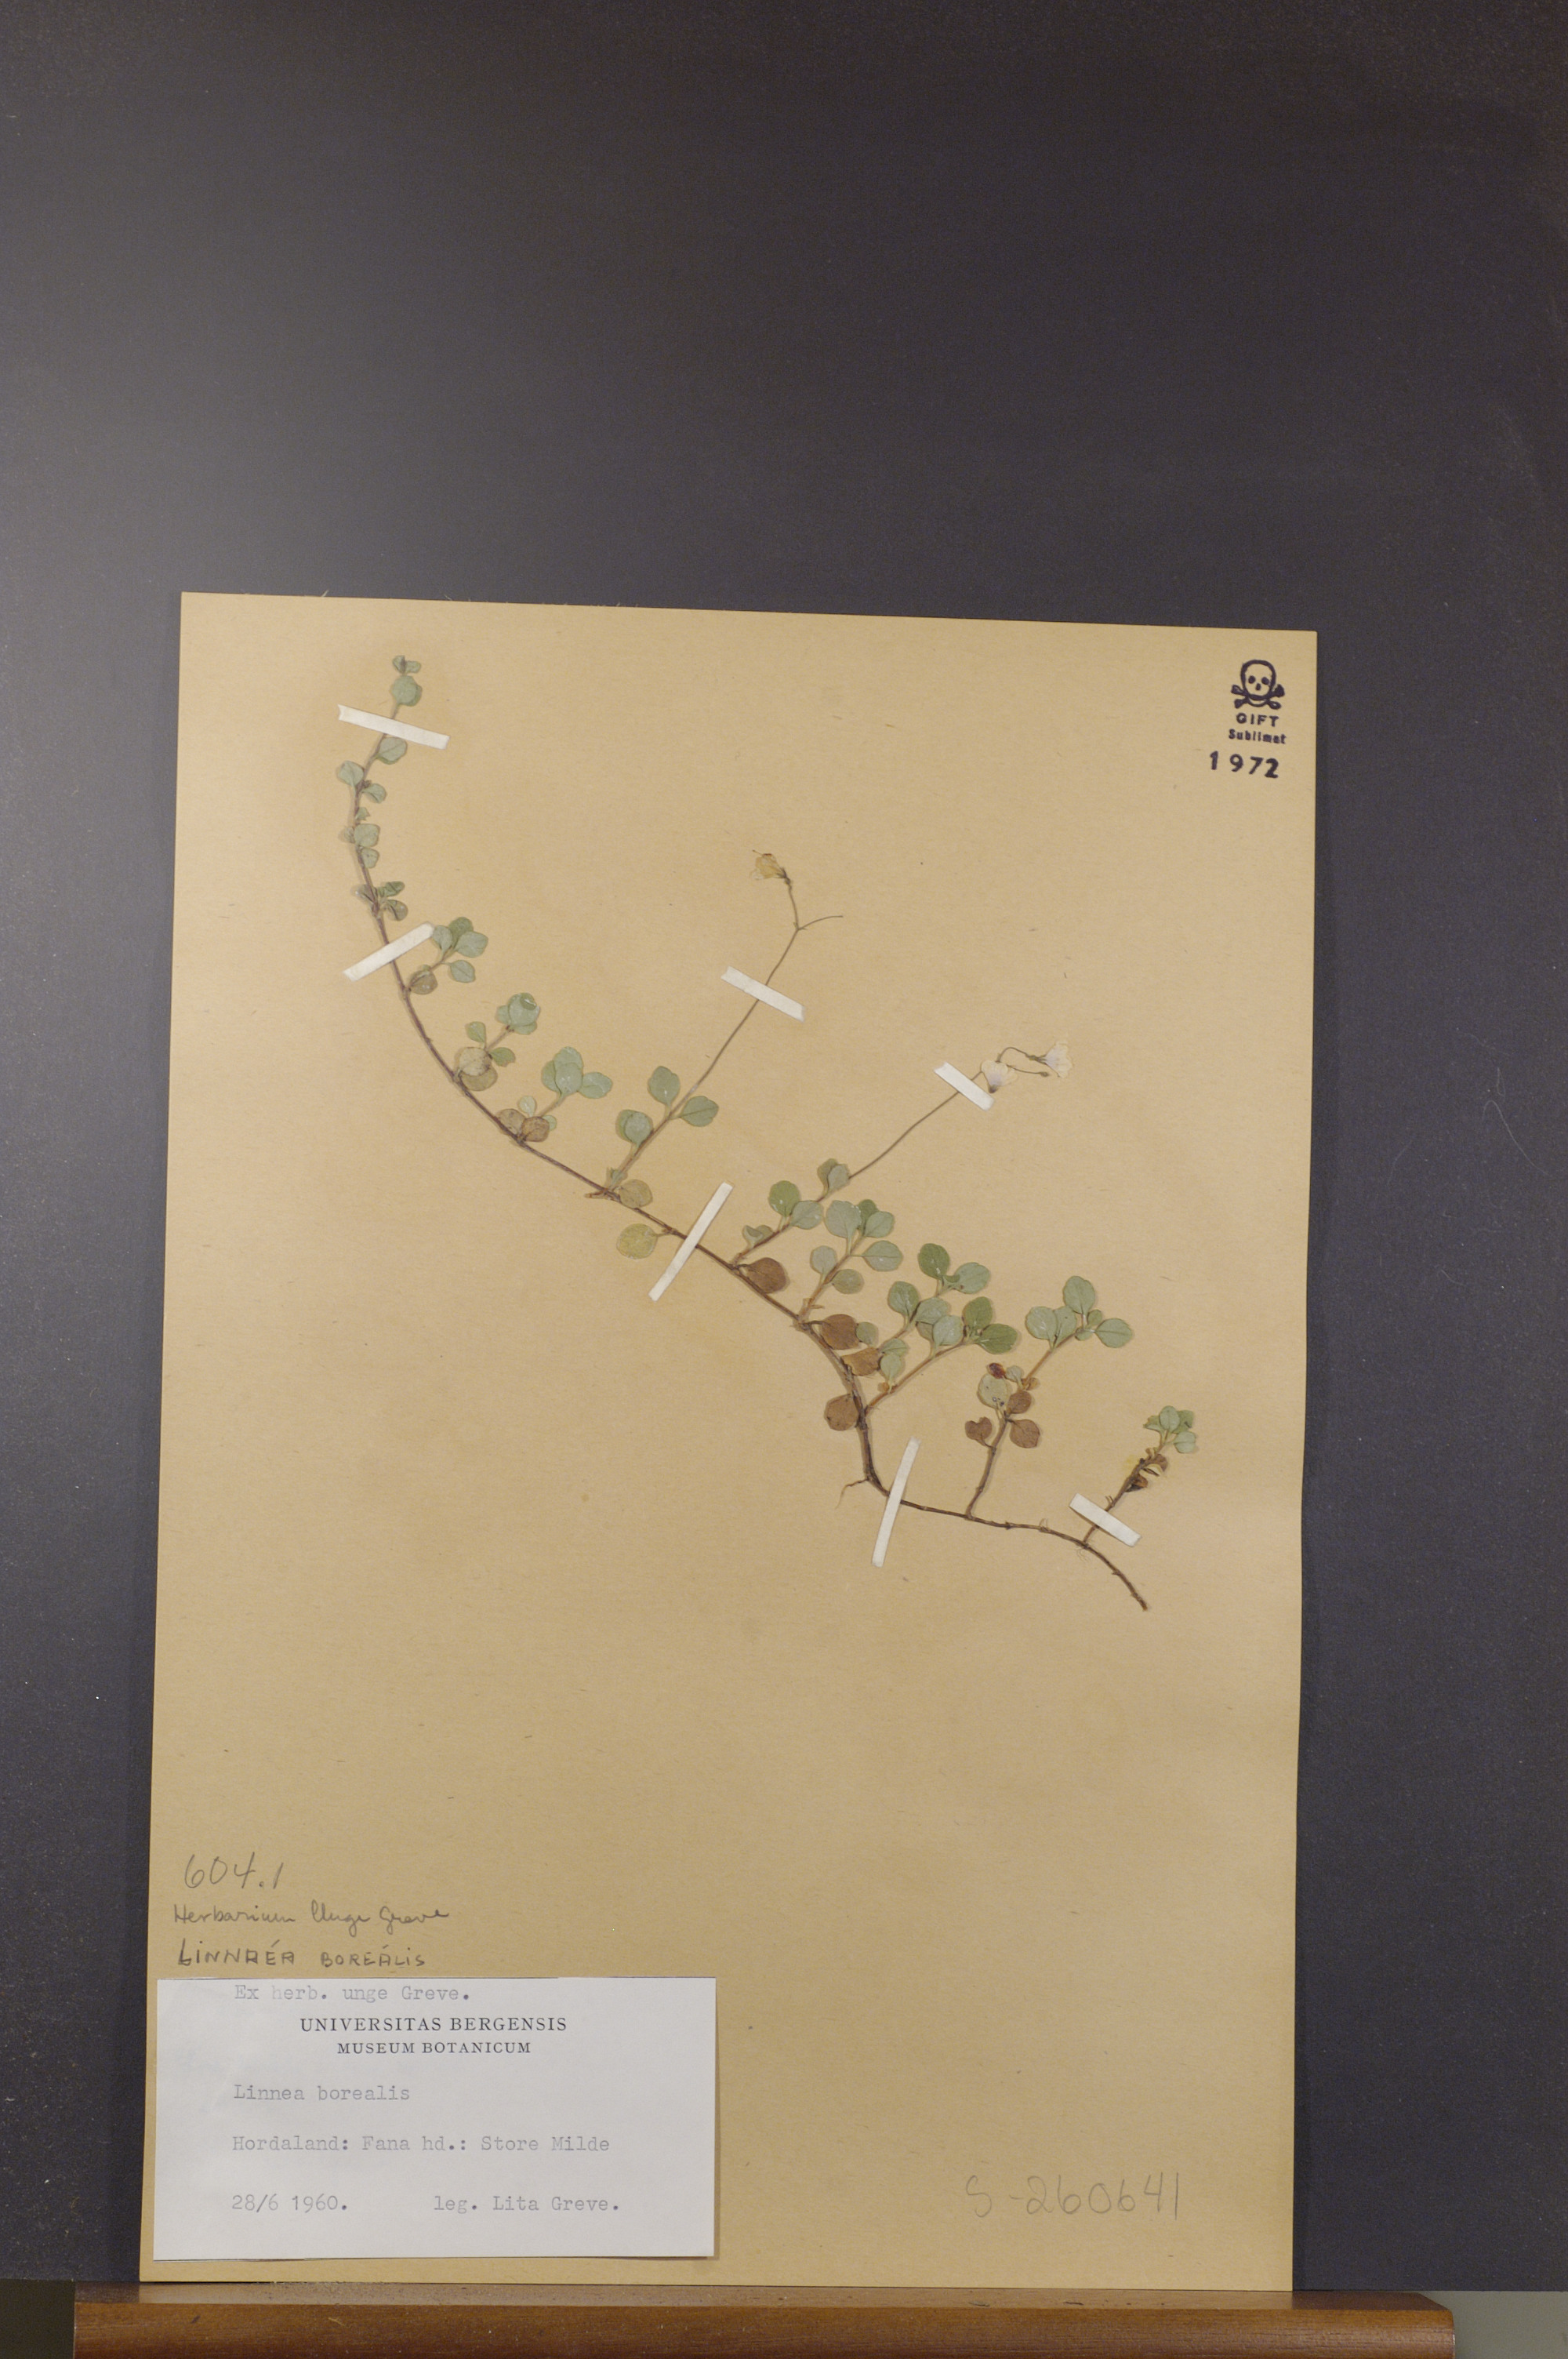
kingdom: Plantae
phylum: Tracheophyta
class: Magnoliopsida
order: Dipsacales
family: Caprifoliaceae
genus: Linnaea
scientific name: Linnaea borealis
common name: Twinflower
